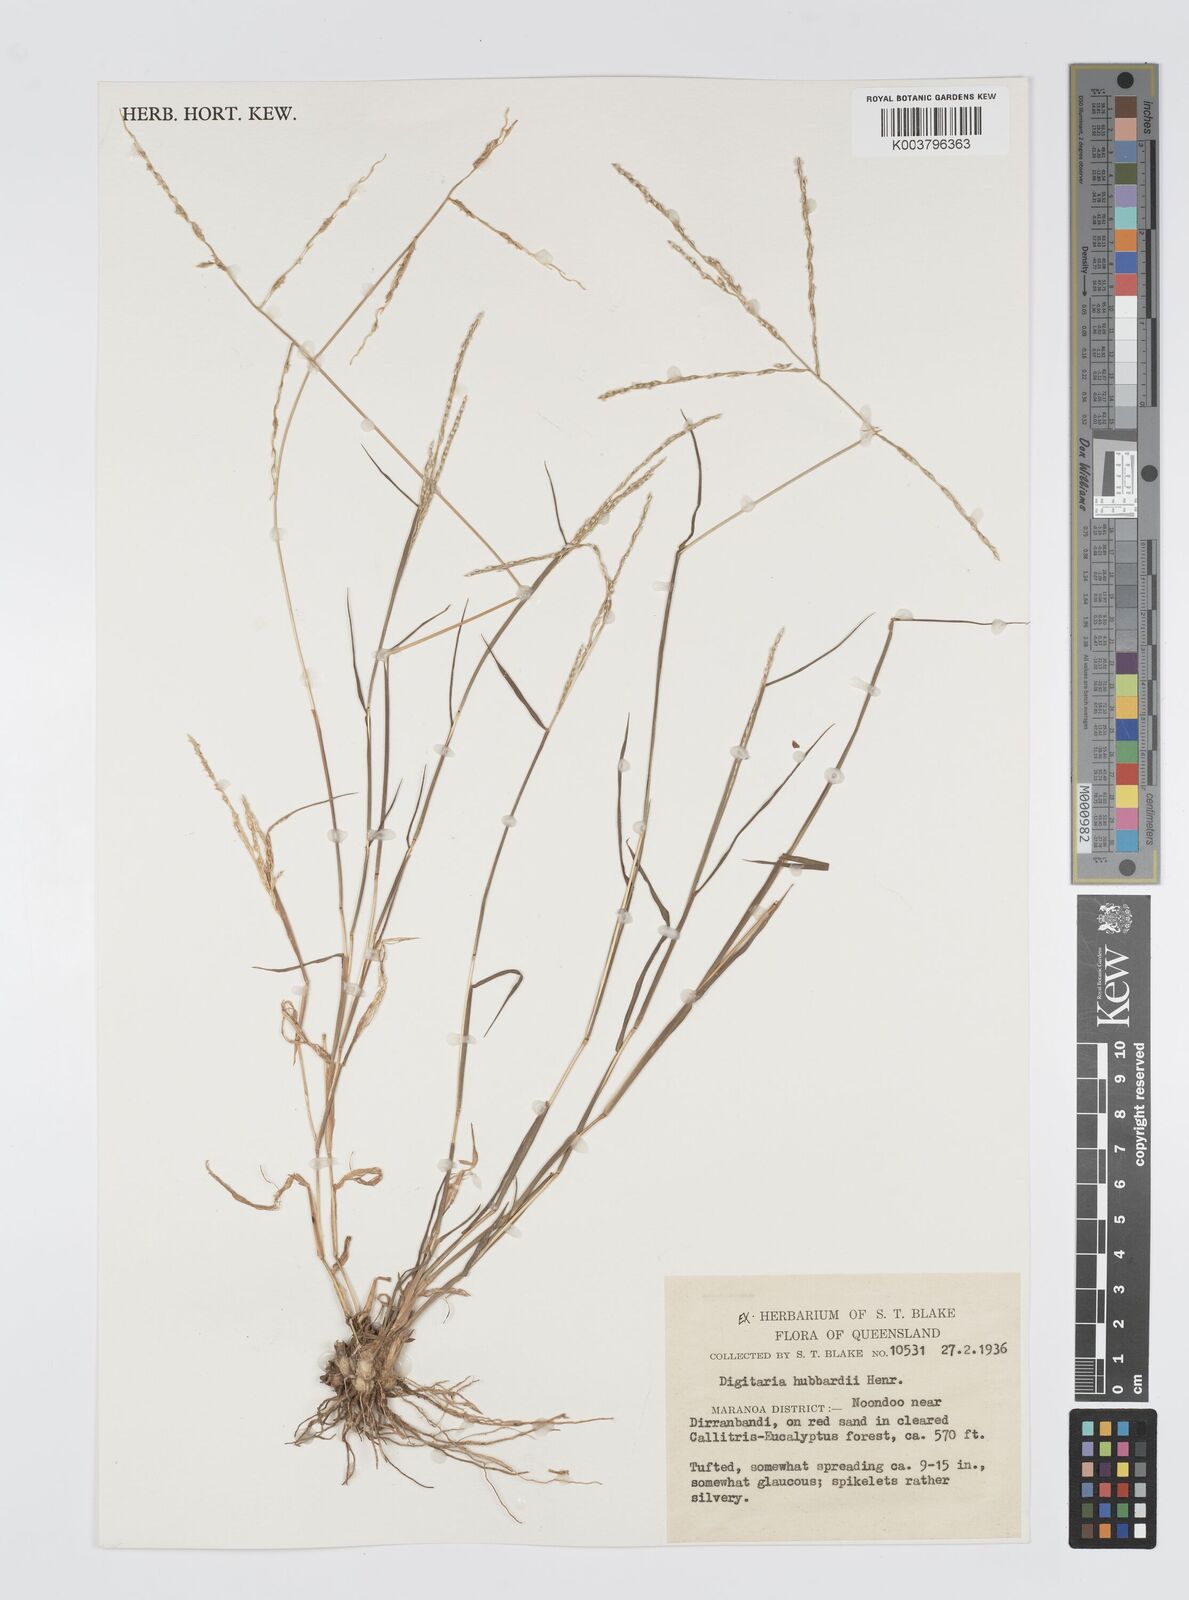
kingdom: Plantae
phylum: Tracheophyta
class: Liliopsida
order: Poales
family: Poaceae
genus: Digitaria
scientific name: Digitaria hubbardii
